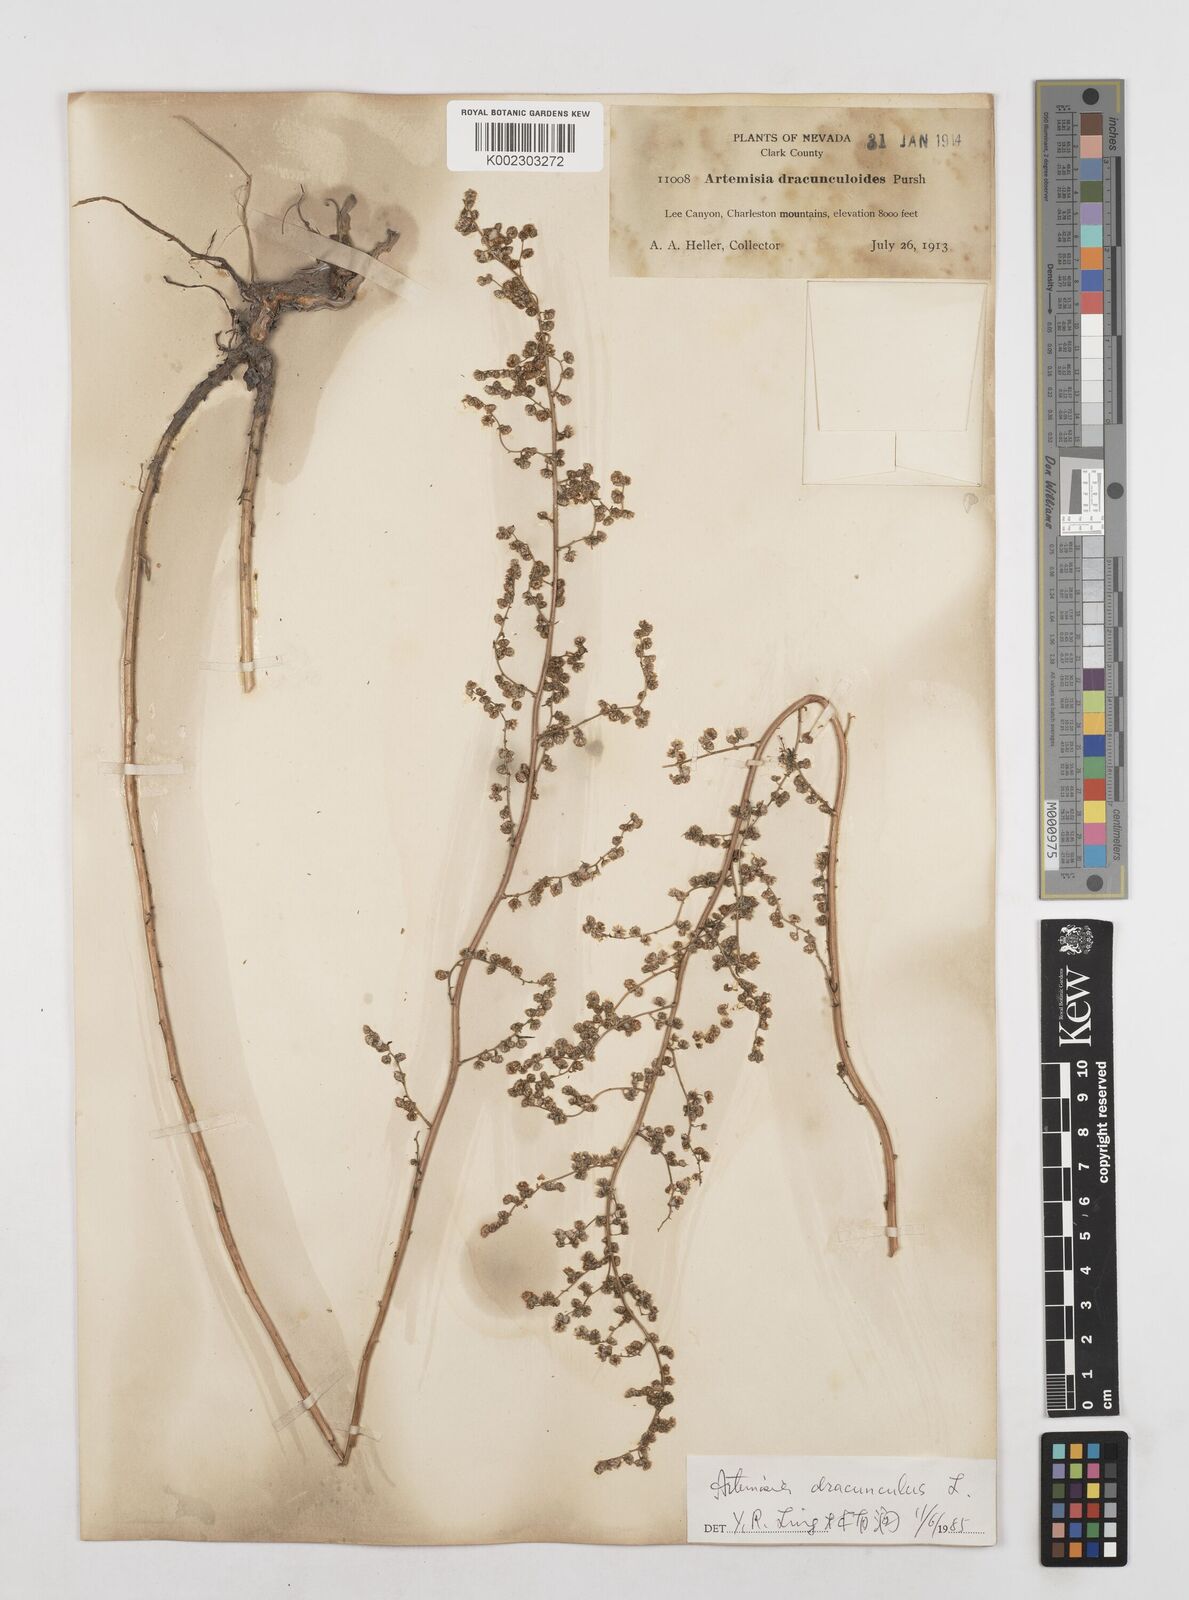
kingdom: Plantae
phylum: Tracheophyta
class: Magnoliopsida
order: Asterales
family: Asteraceae
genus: Artemisia
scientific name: Artemisia dracunculus
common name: Tarragon
